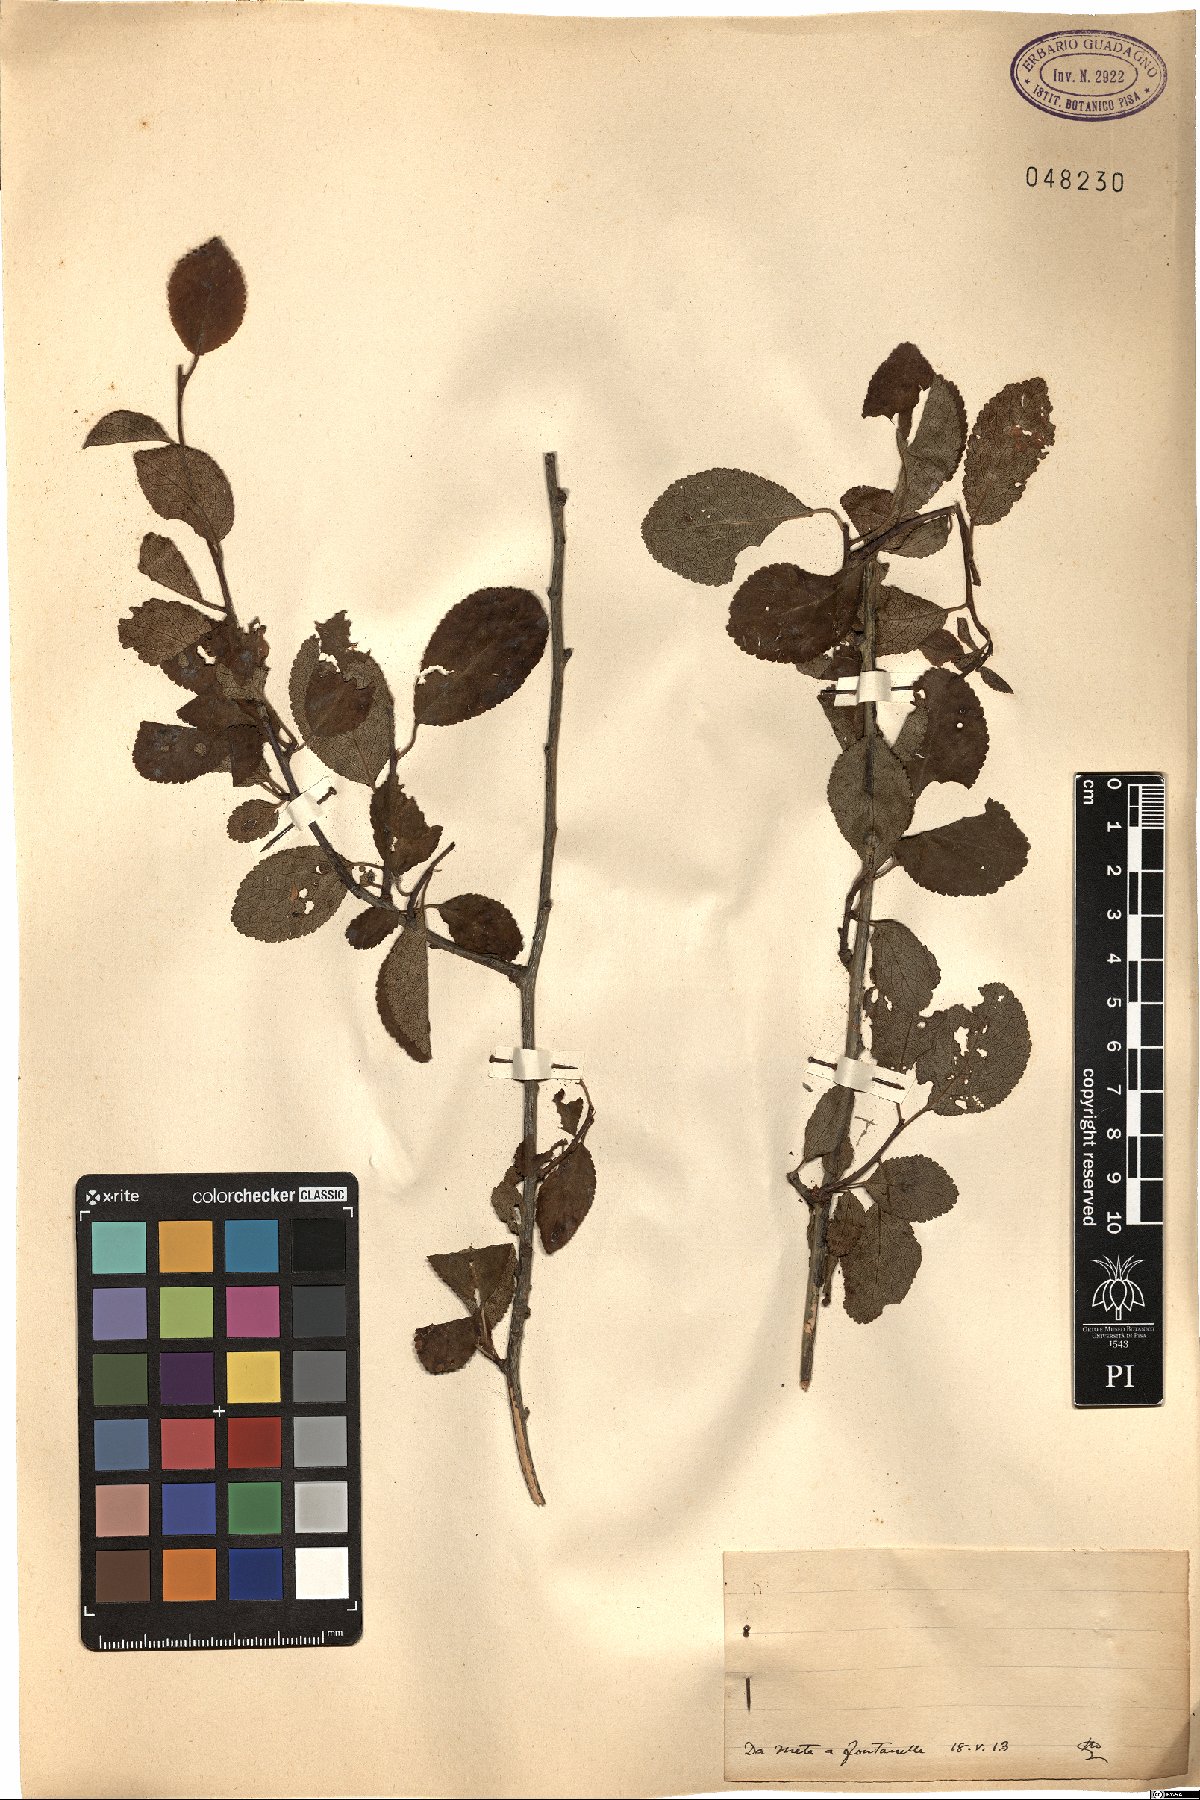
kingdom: Plantae
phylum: Tracheophyta
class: Magnoliopsida
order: Rosales
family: Rosaceae
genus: Prunus
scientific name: Prunus
